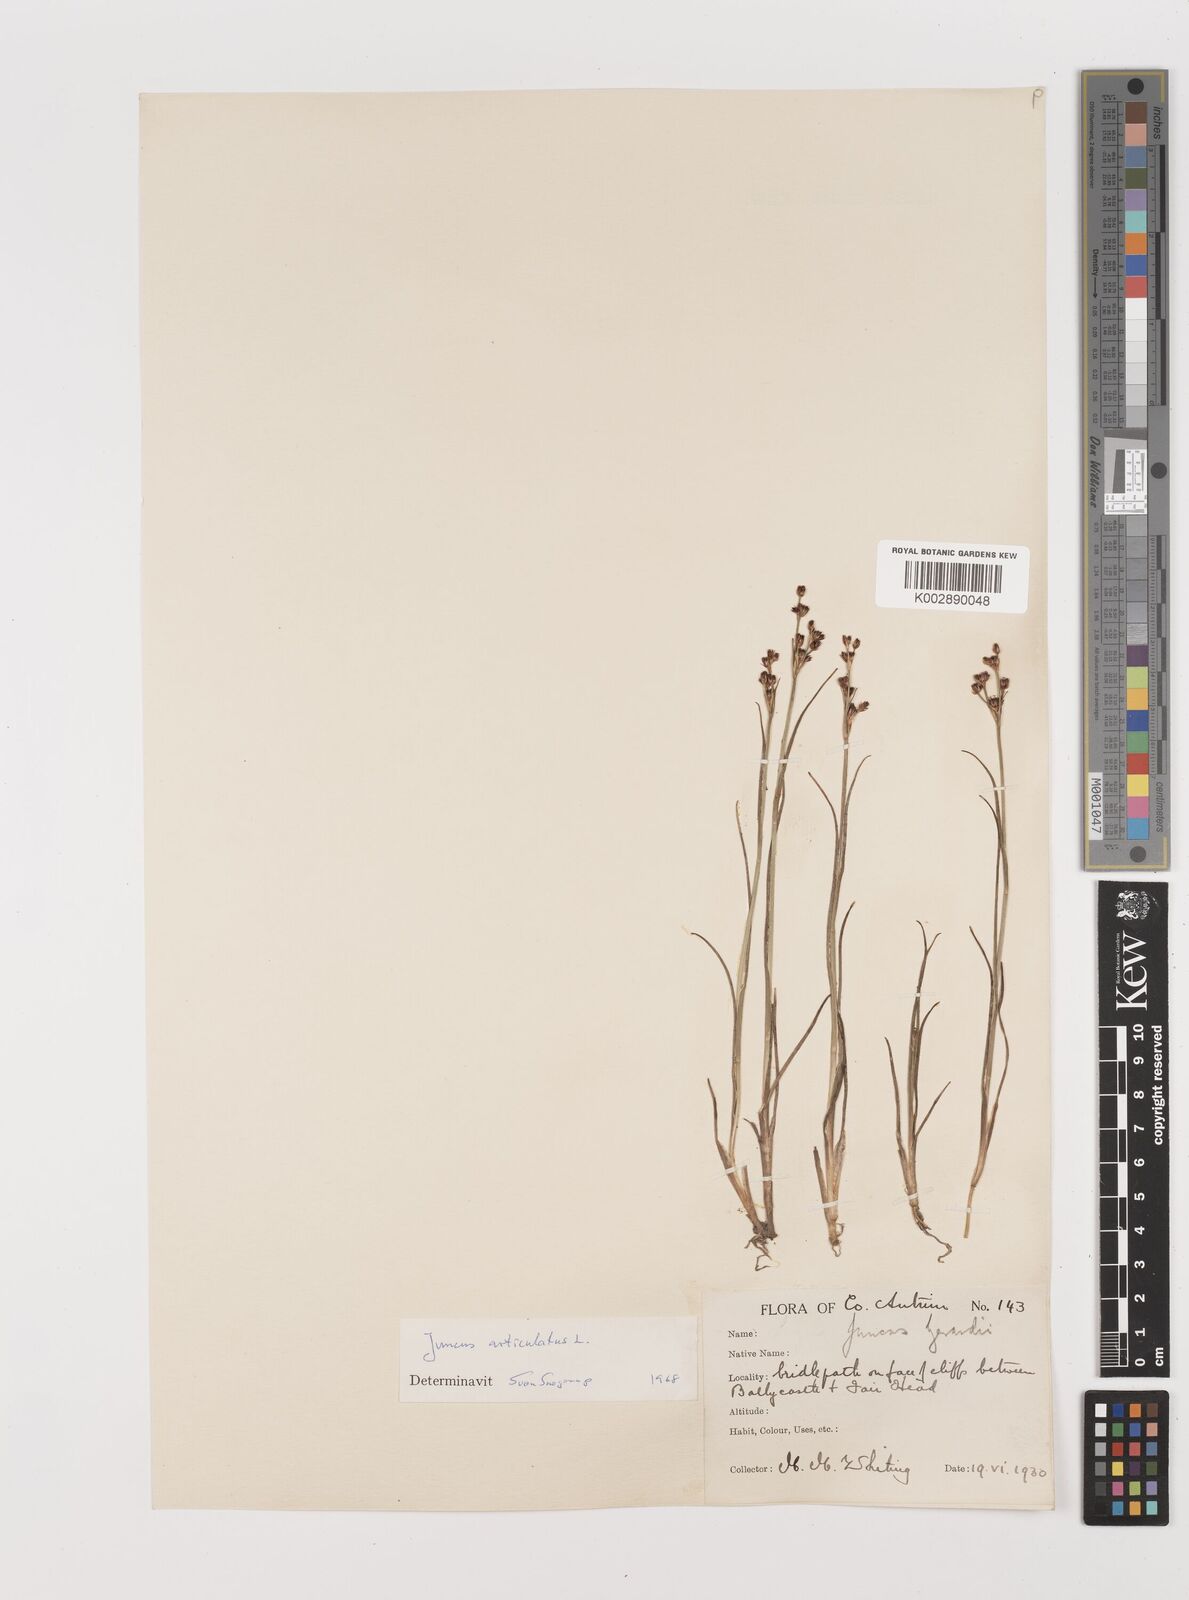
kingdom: Plantae
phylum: Tracheophyta
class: Liliopsida
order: Poales
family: Juncaceae
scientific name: Juncaceae
